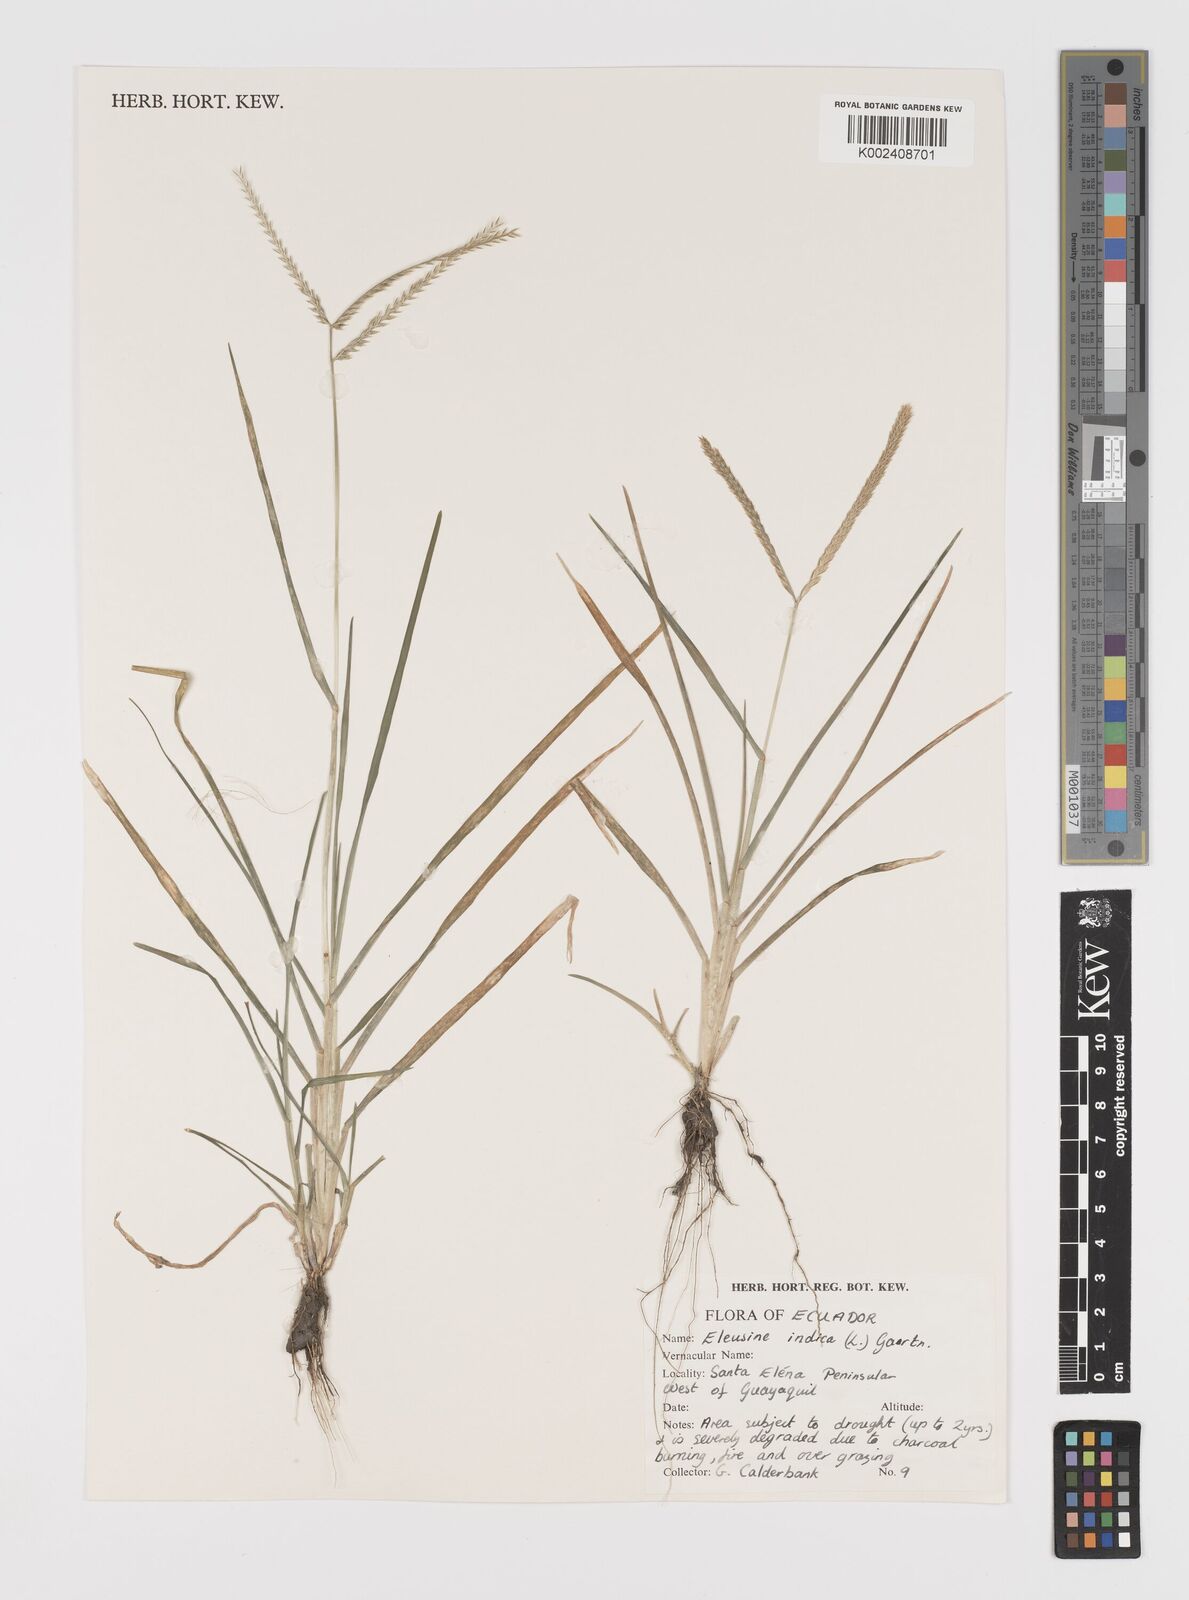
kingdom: Plantae
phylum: Tracheophyta
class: Liliopsida
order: Poales
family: Poaceae
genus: Eleusine
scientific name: Eleusine indica
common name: Yard-grass
